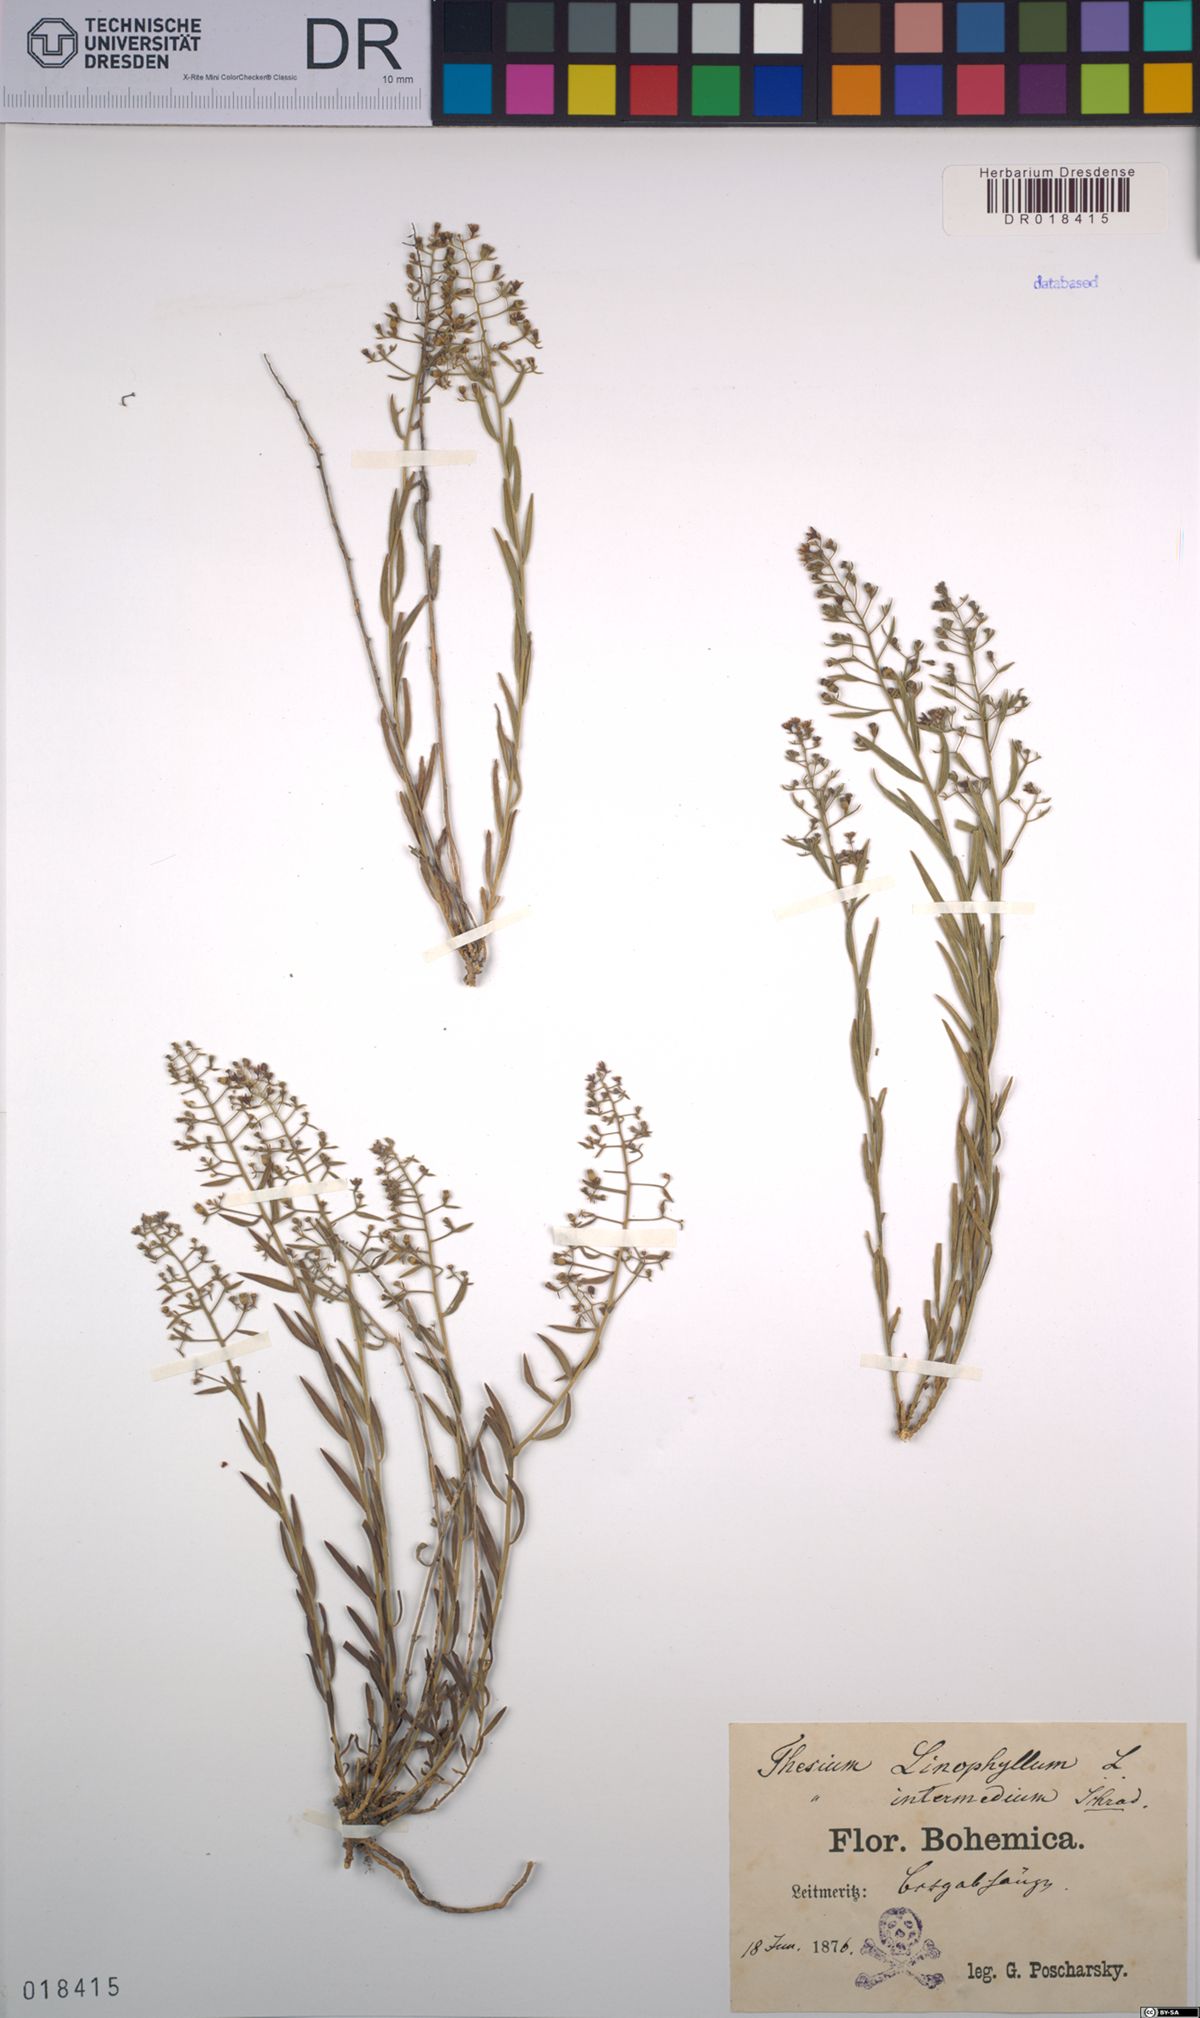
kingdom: Plantae
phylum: Tracheophyta
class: Magnoliopsida
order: Santalales
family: Thesiaceae
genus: Thesium
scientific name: Thesium linophyllon
